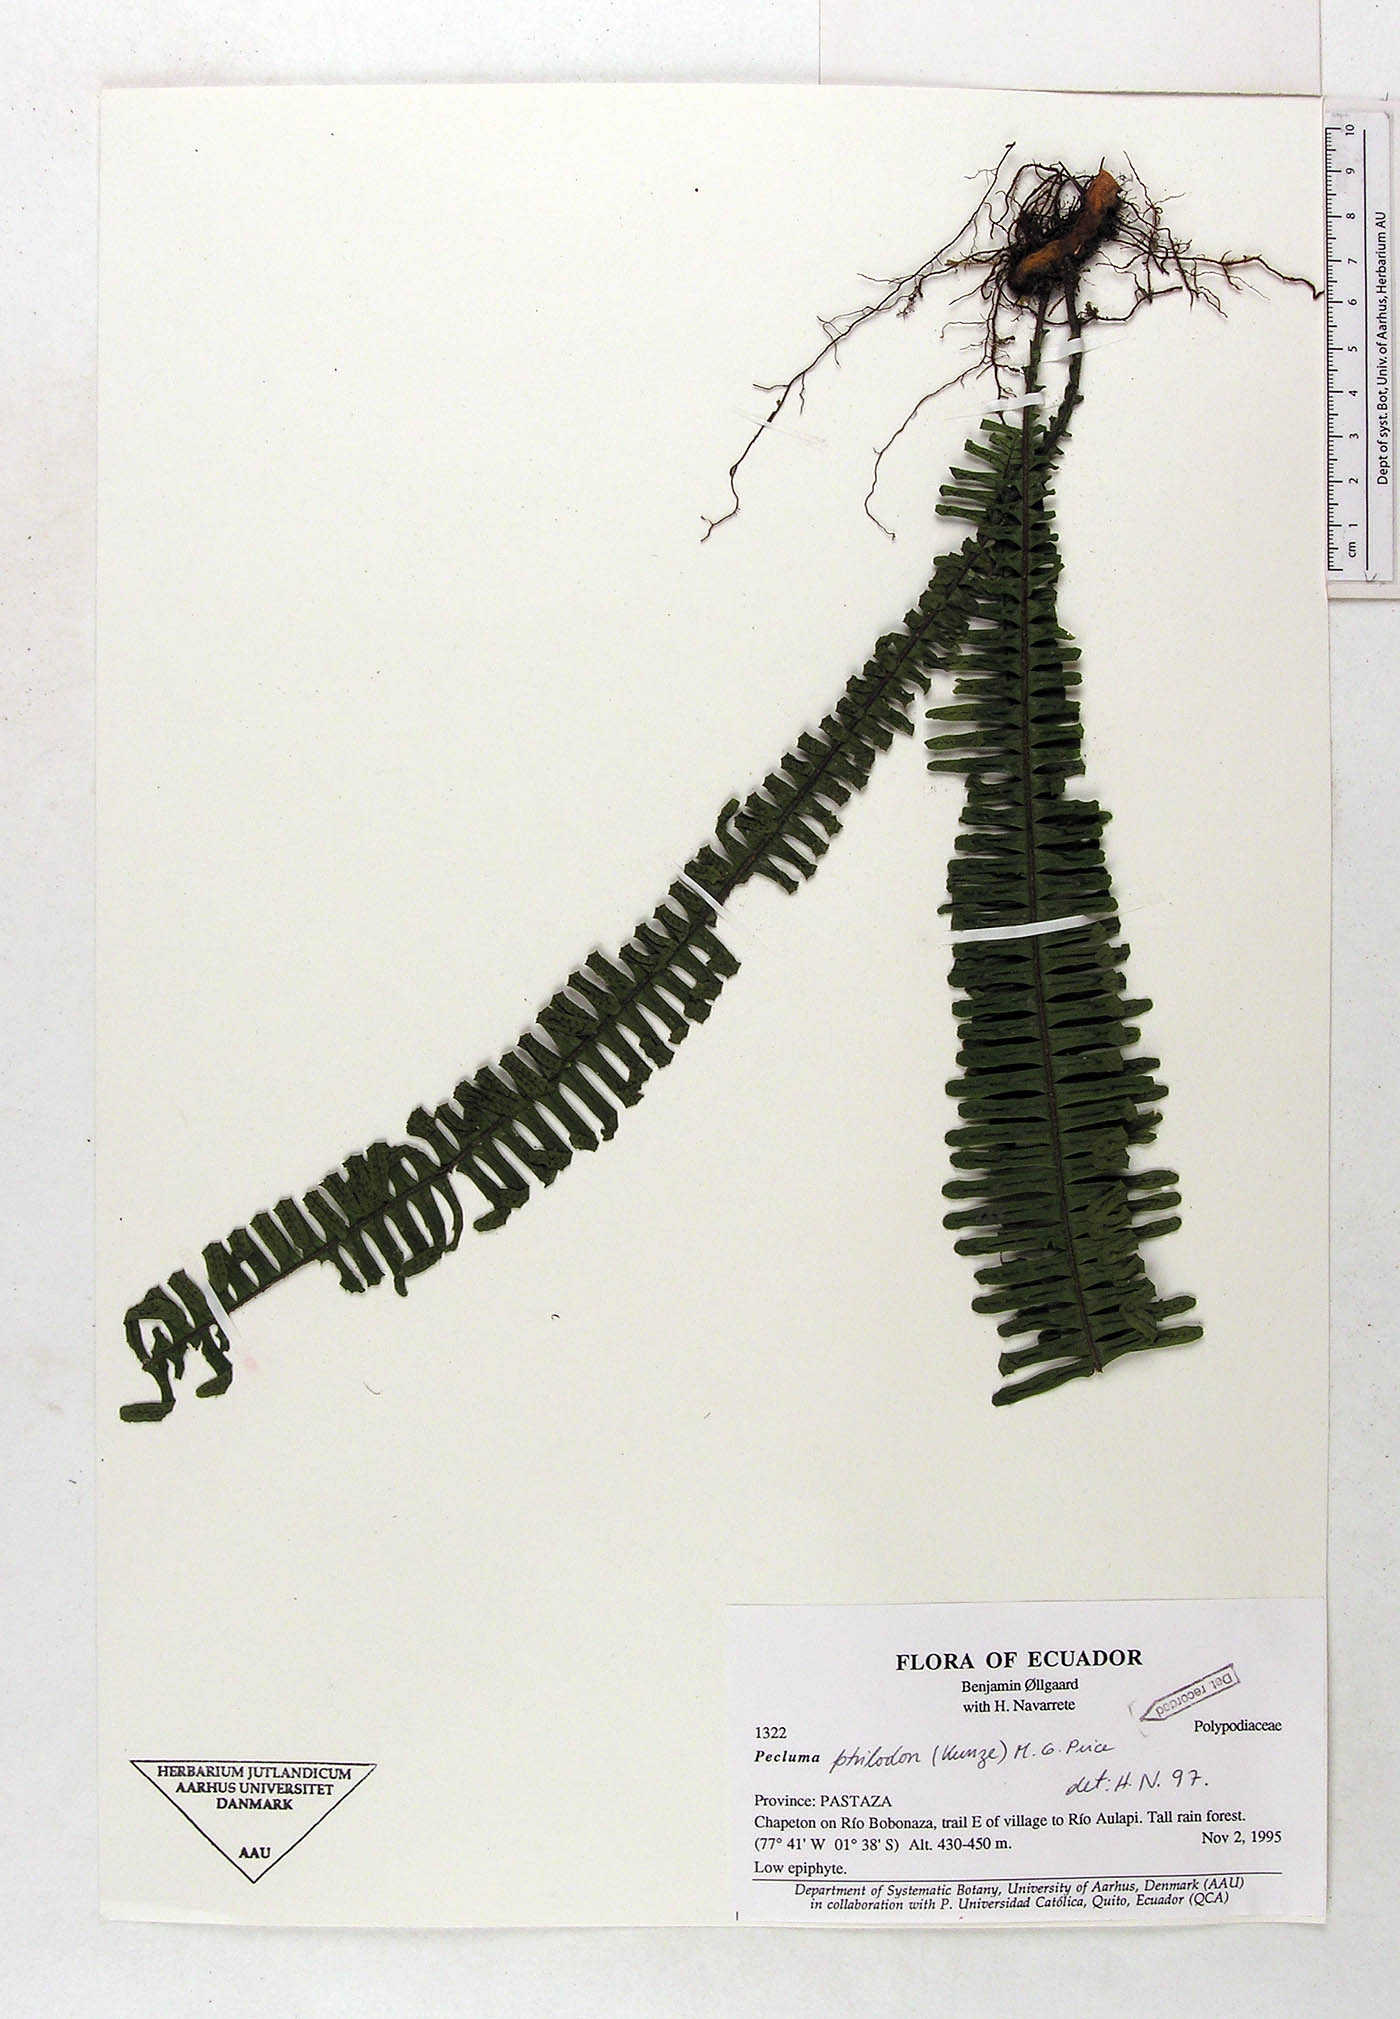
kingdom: Plantae
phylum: Tracheophyta
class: Polypodiopsida
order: Polypodiales
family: Polypodiaceae
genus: Pecluma
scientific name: Pecluma ptilotos
